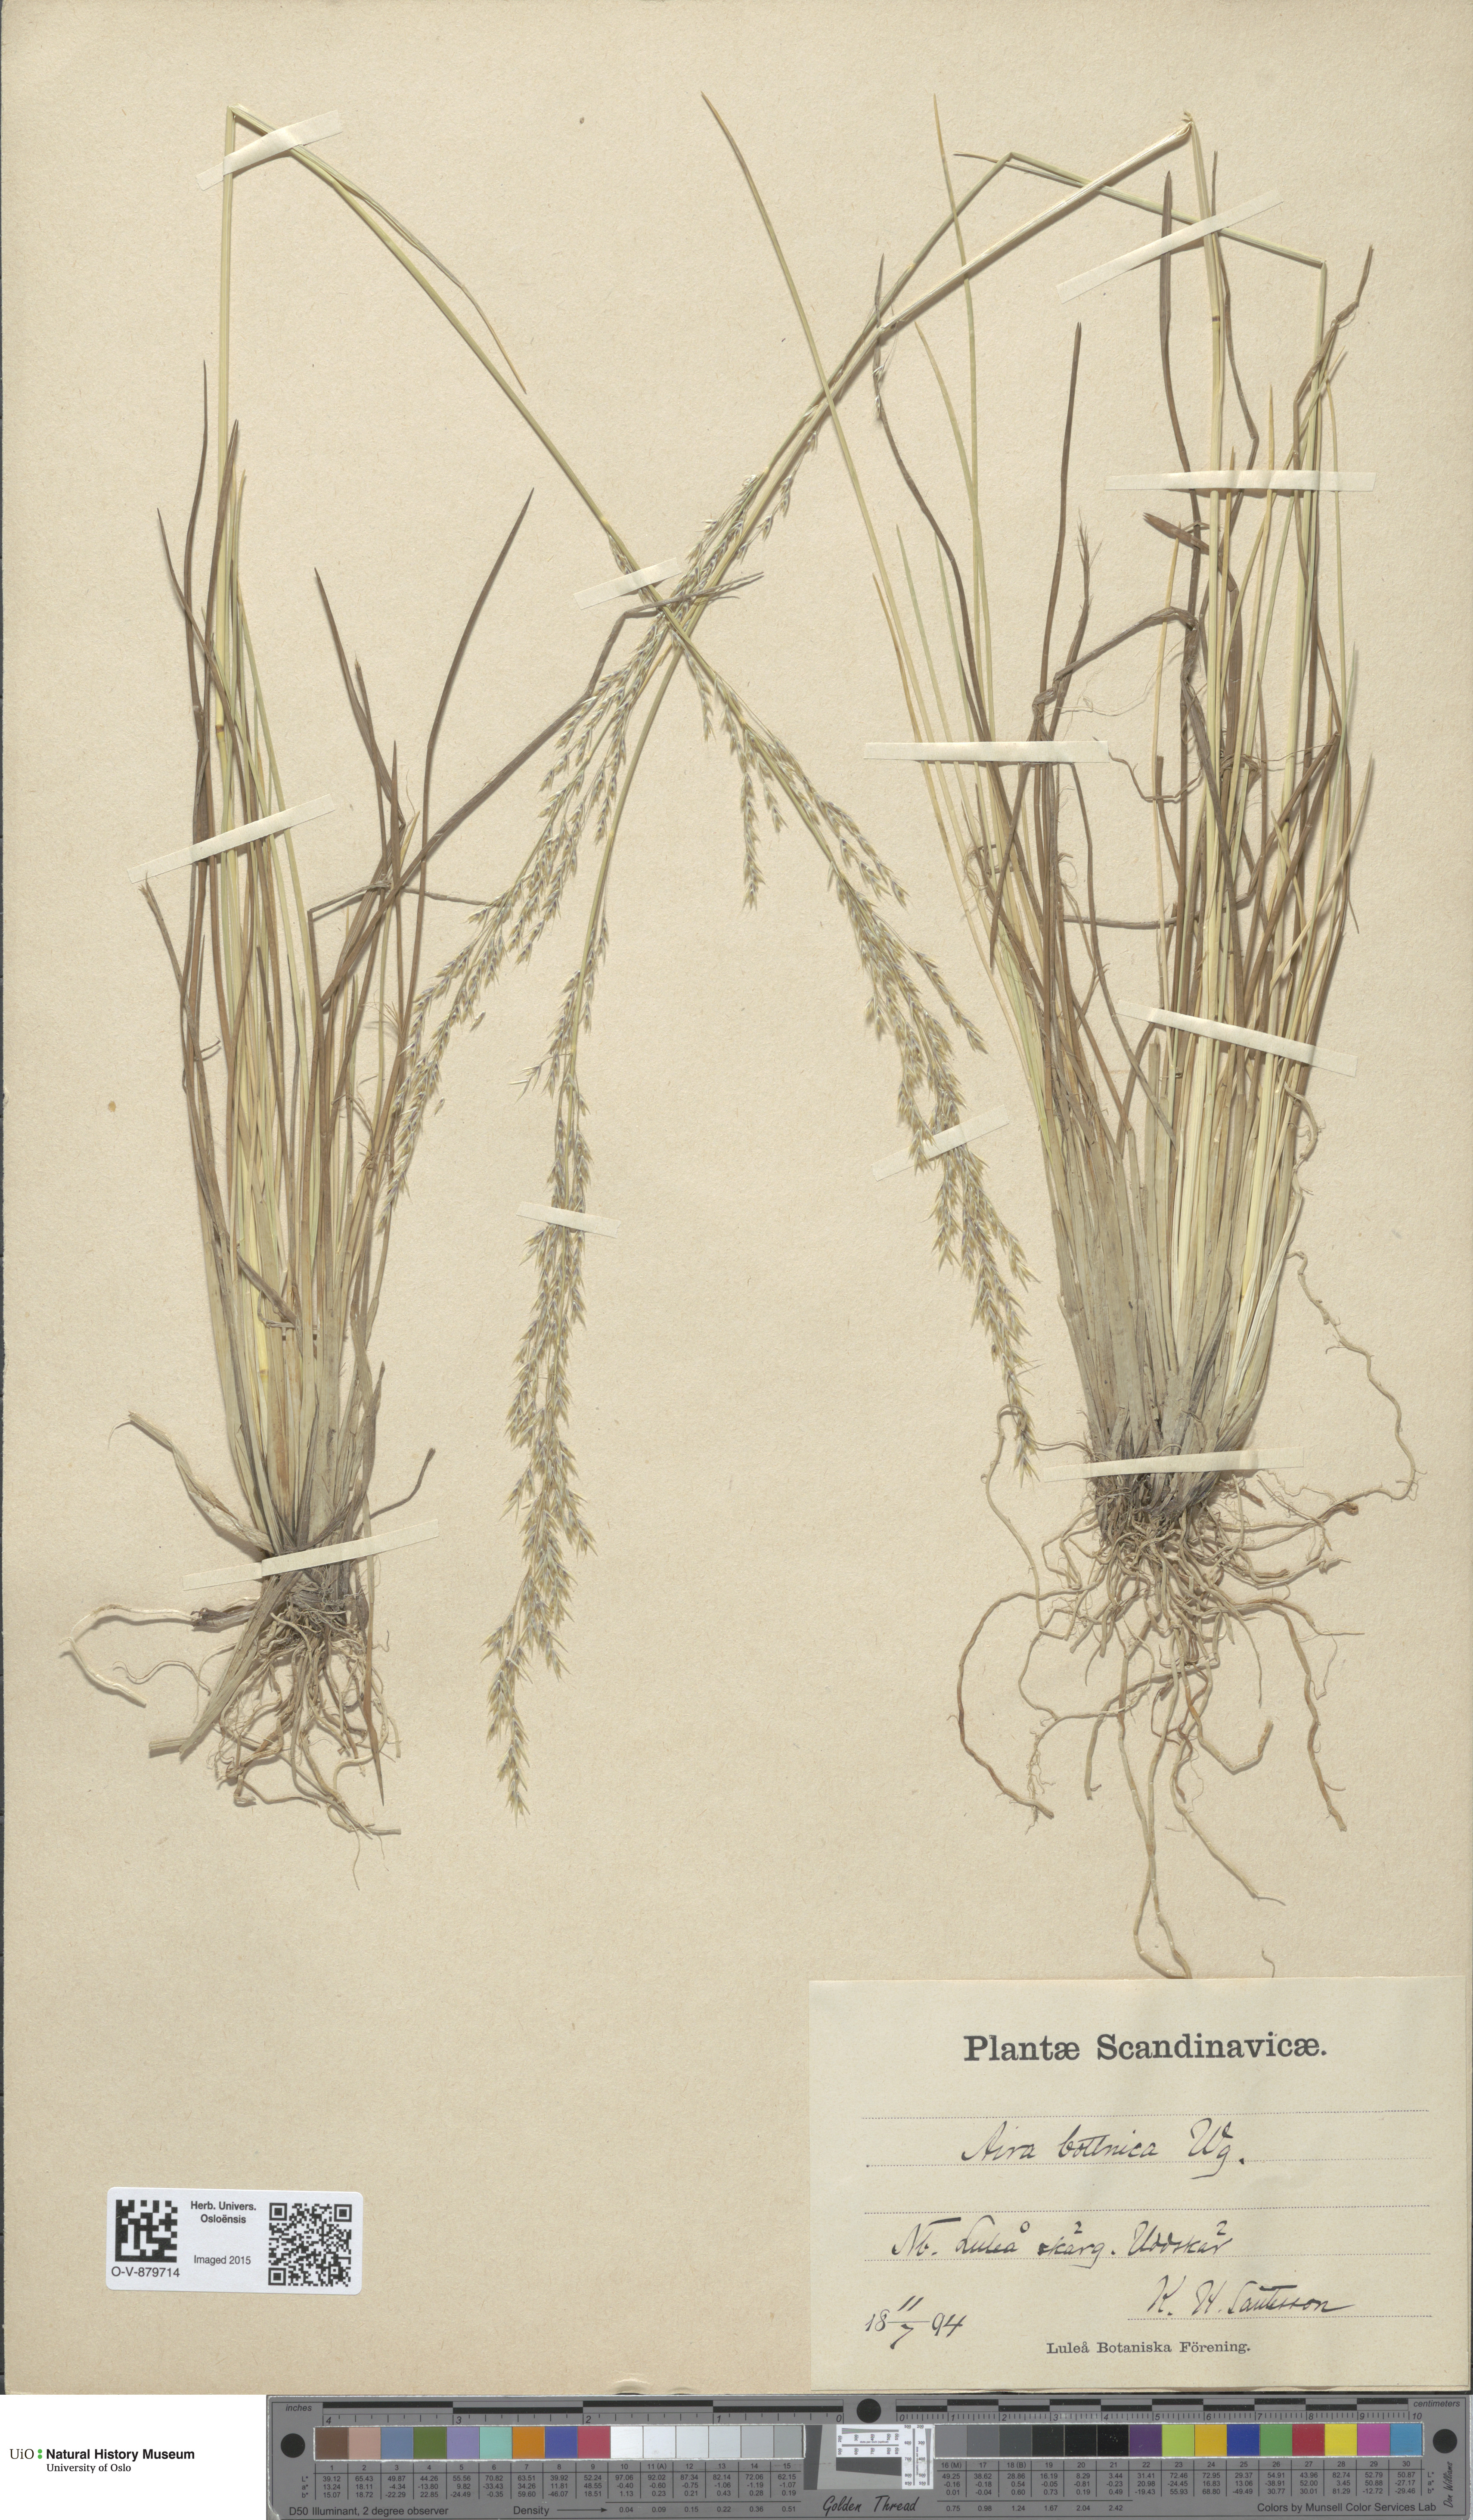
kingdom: Plantae
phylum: Tracheophyta
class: Liliopsida
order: Poales
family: Poaceae
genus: Deschampsia
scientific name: Deschampsia cespitosa
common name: Tufted hair-grass
